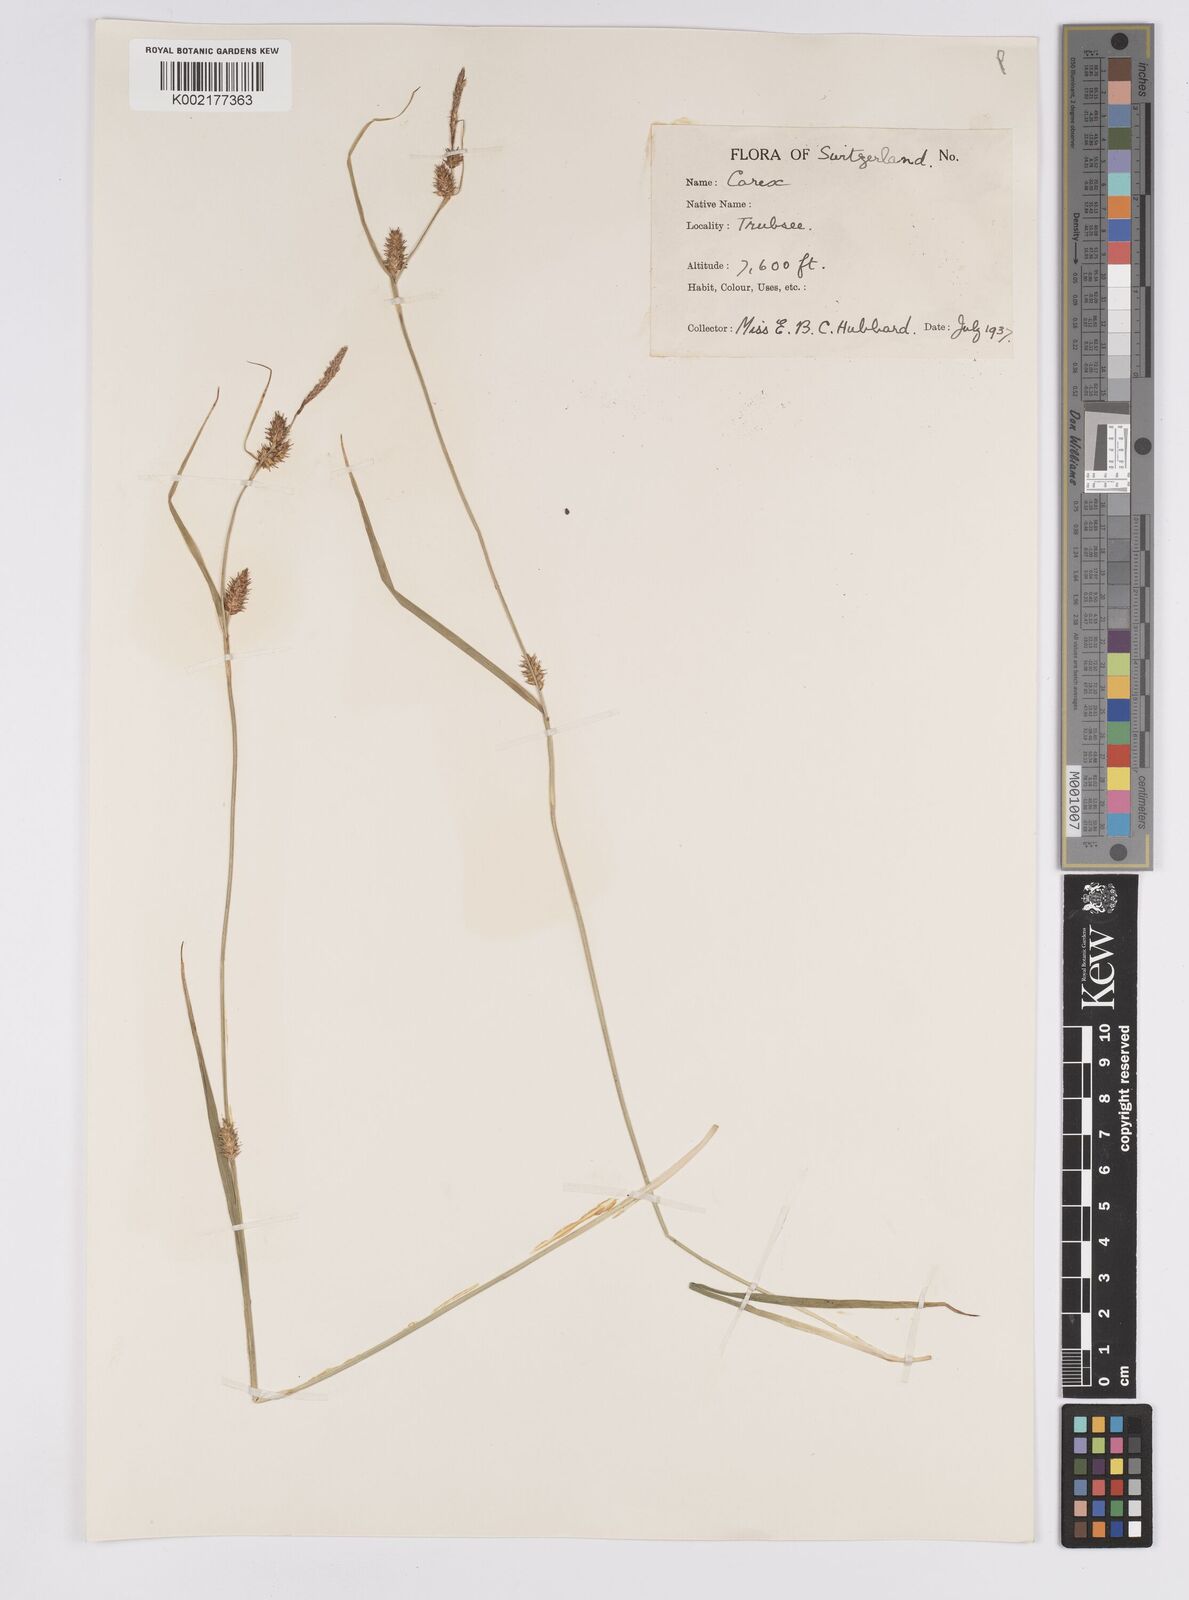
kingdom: Plantae
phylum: Tracheophyta
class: Liliopsida
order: Poales
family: Cyperaceae
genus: Carex
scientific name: Carex hostiana
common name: Tawny sedge
